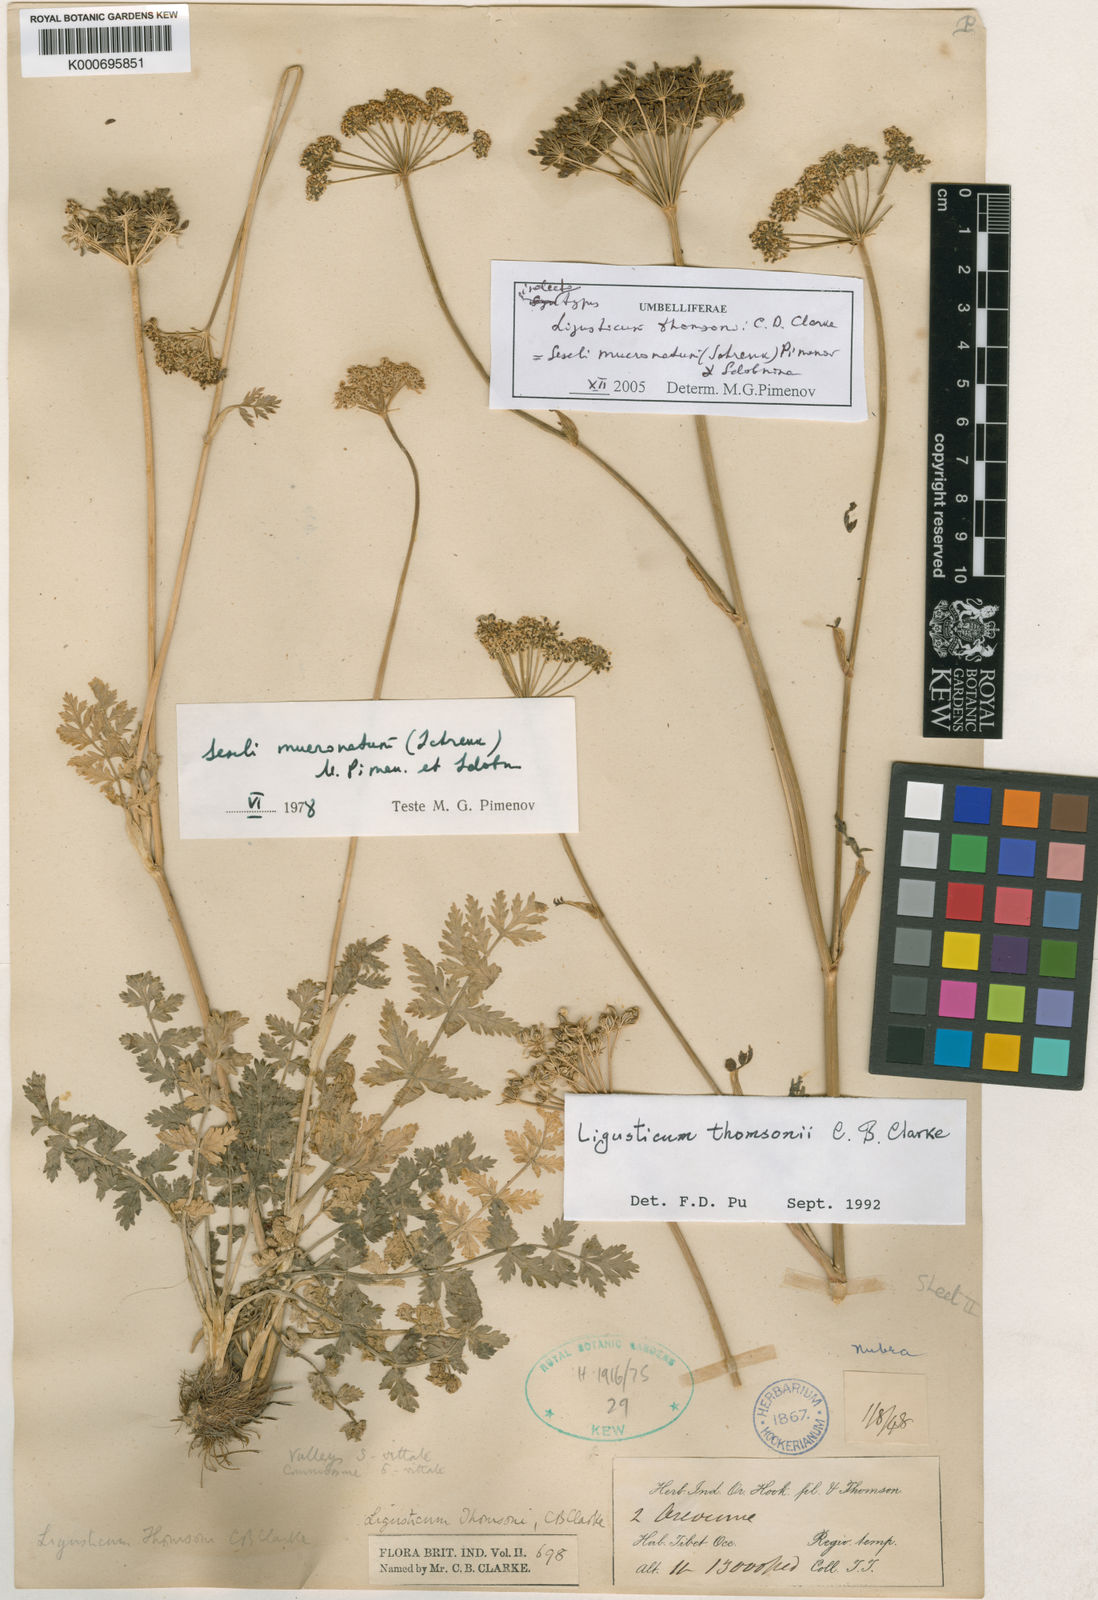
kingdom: Plantae
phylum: Tracheophyta
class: Magnoliopsida
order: Apiales
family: Apiaceae
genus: Seseli
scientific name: Seseli mucronatum
